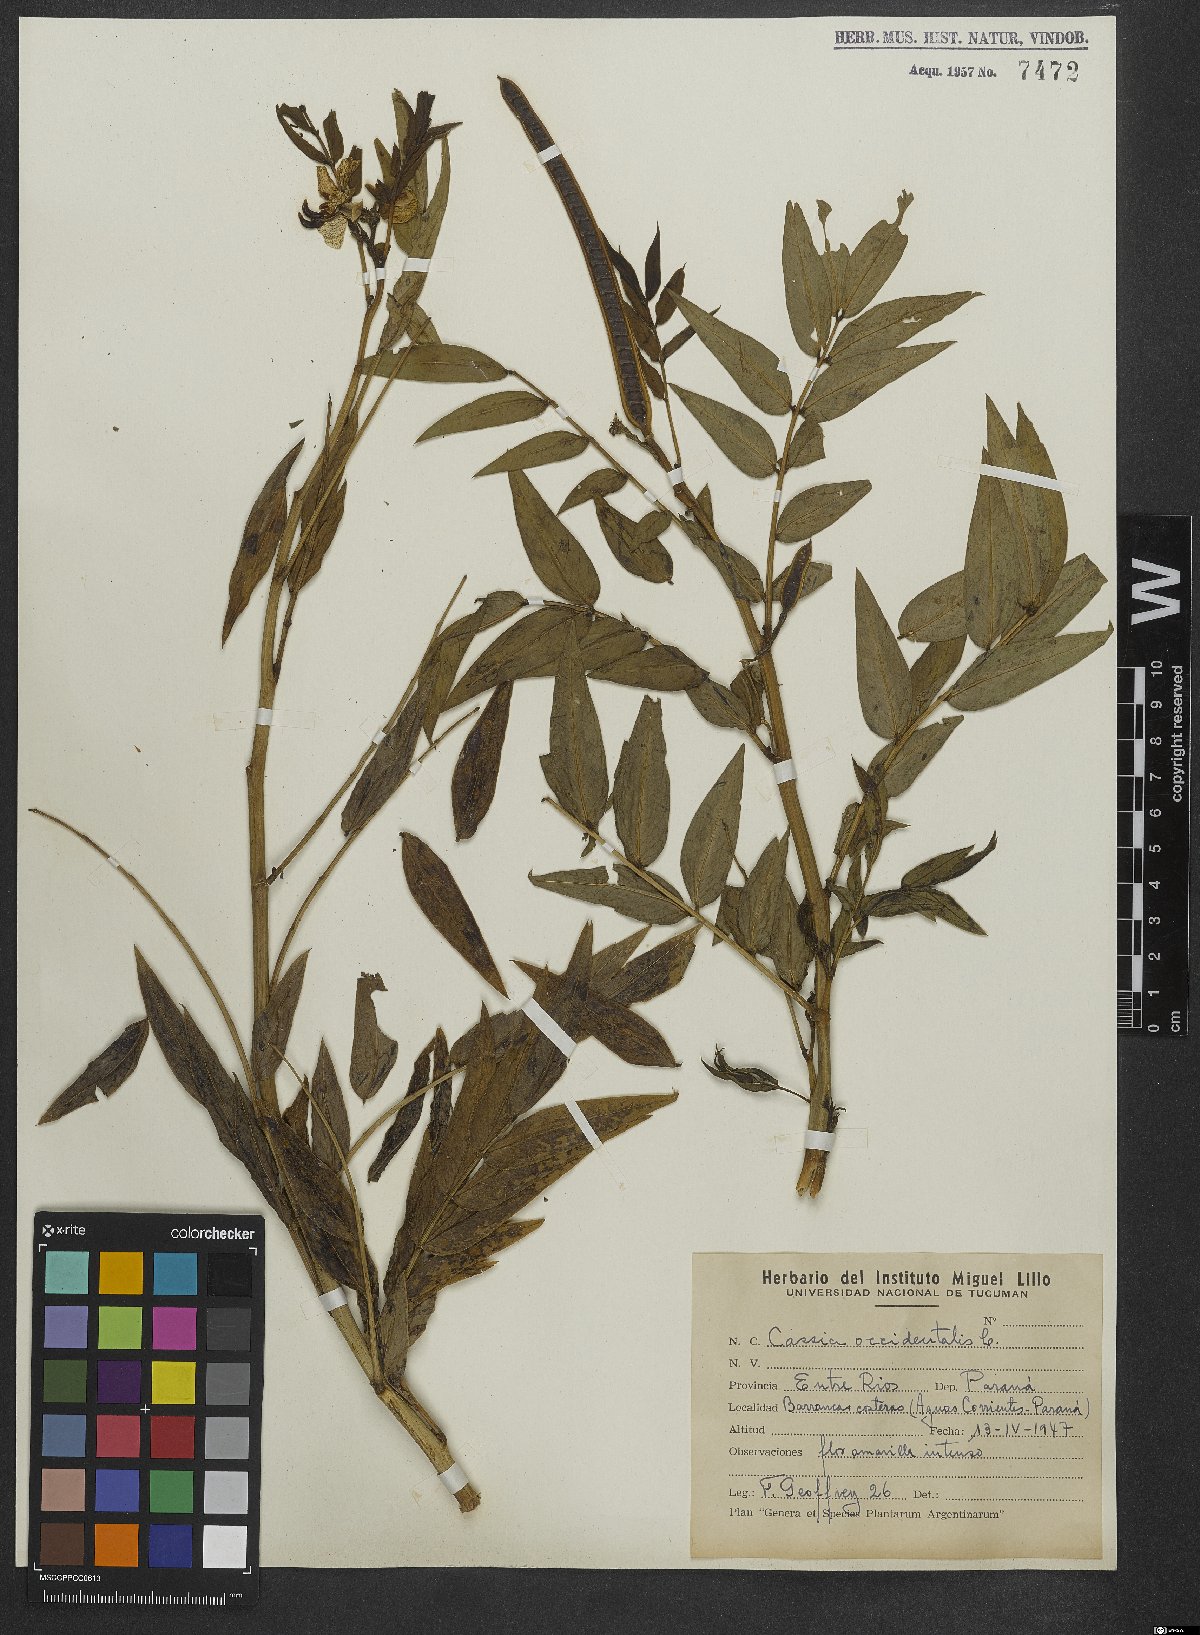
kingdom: Plantae
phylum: Tracheophyta
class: Magnoliopsida
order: Fabales
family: Fabaceae
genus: Senna
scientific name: Senna occidentalis
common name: Septicweed
